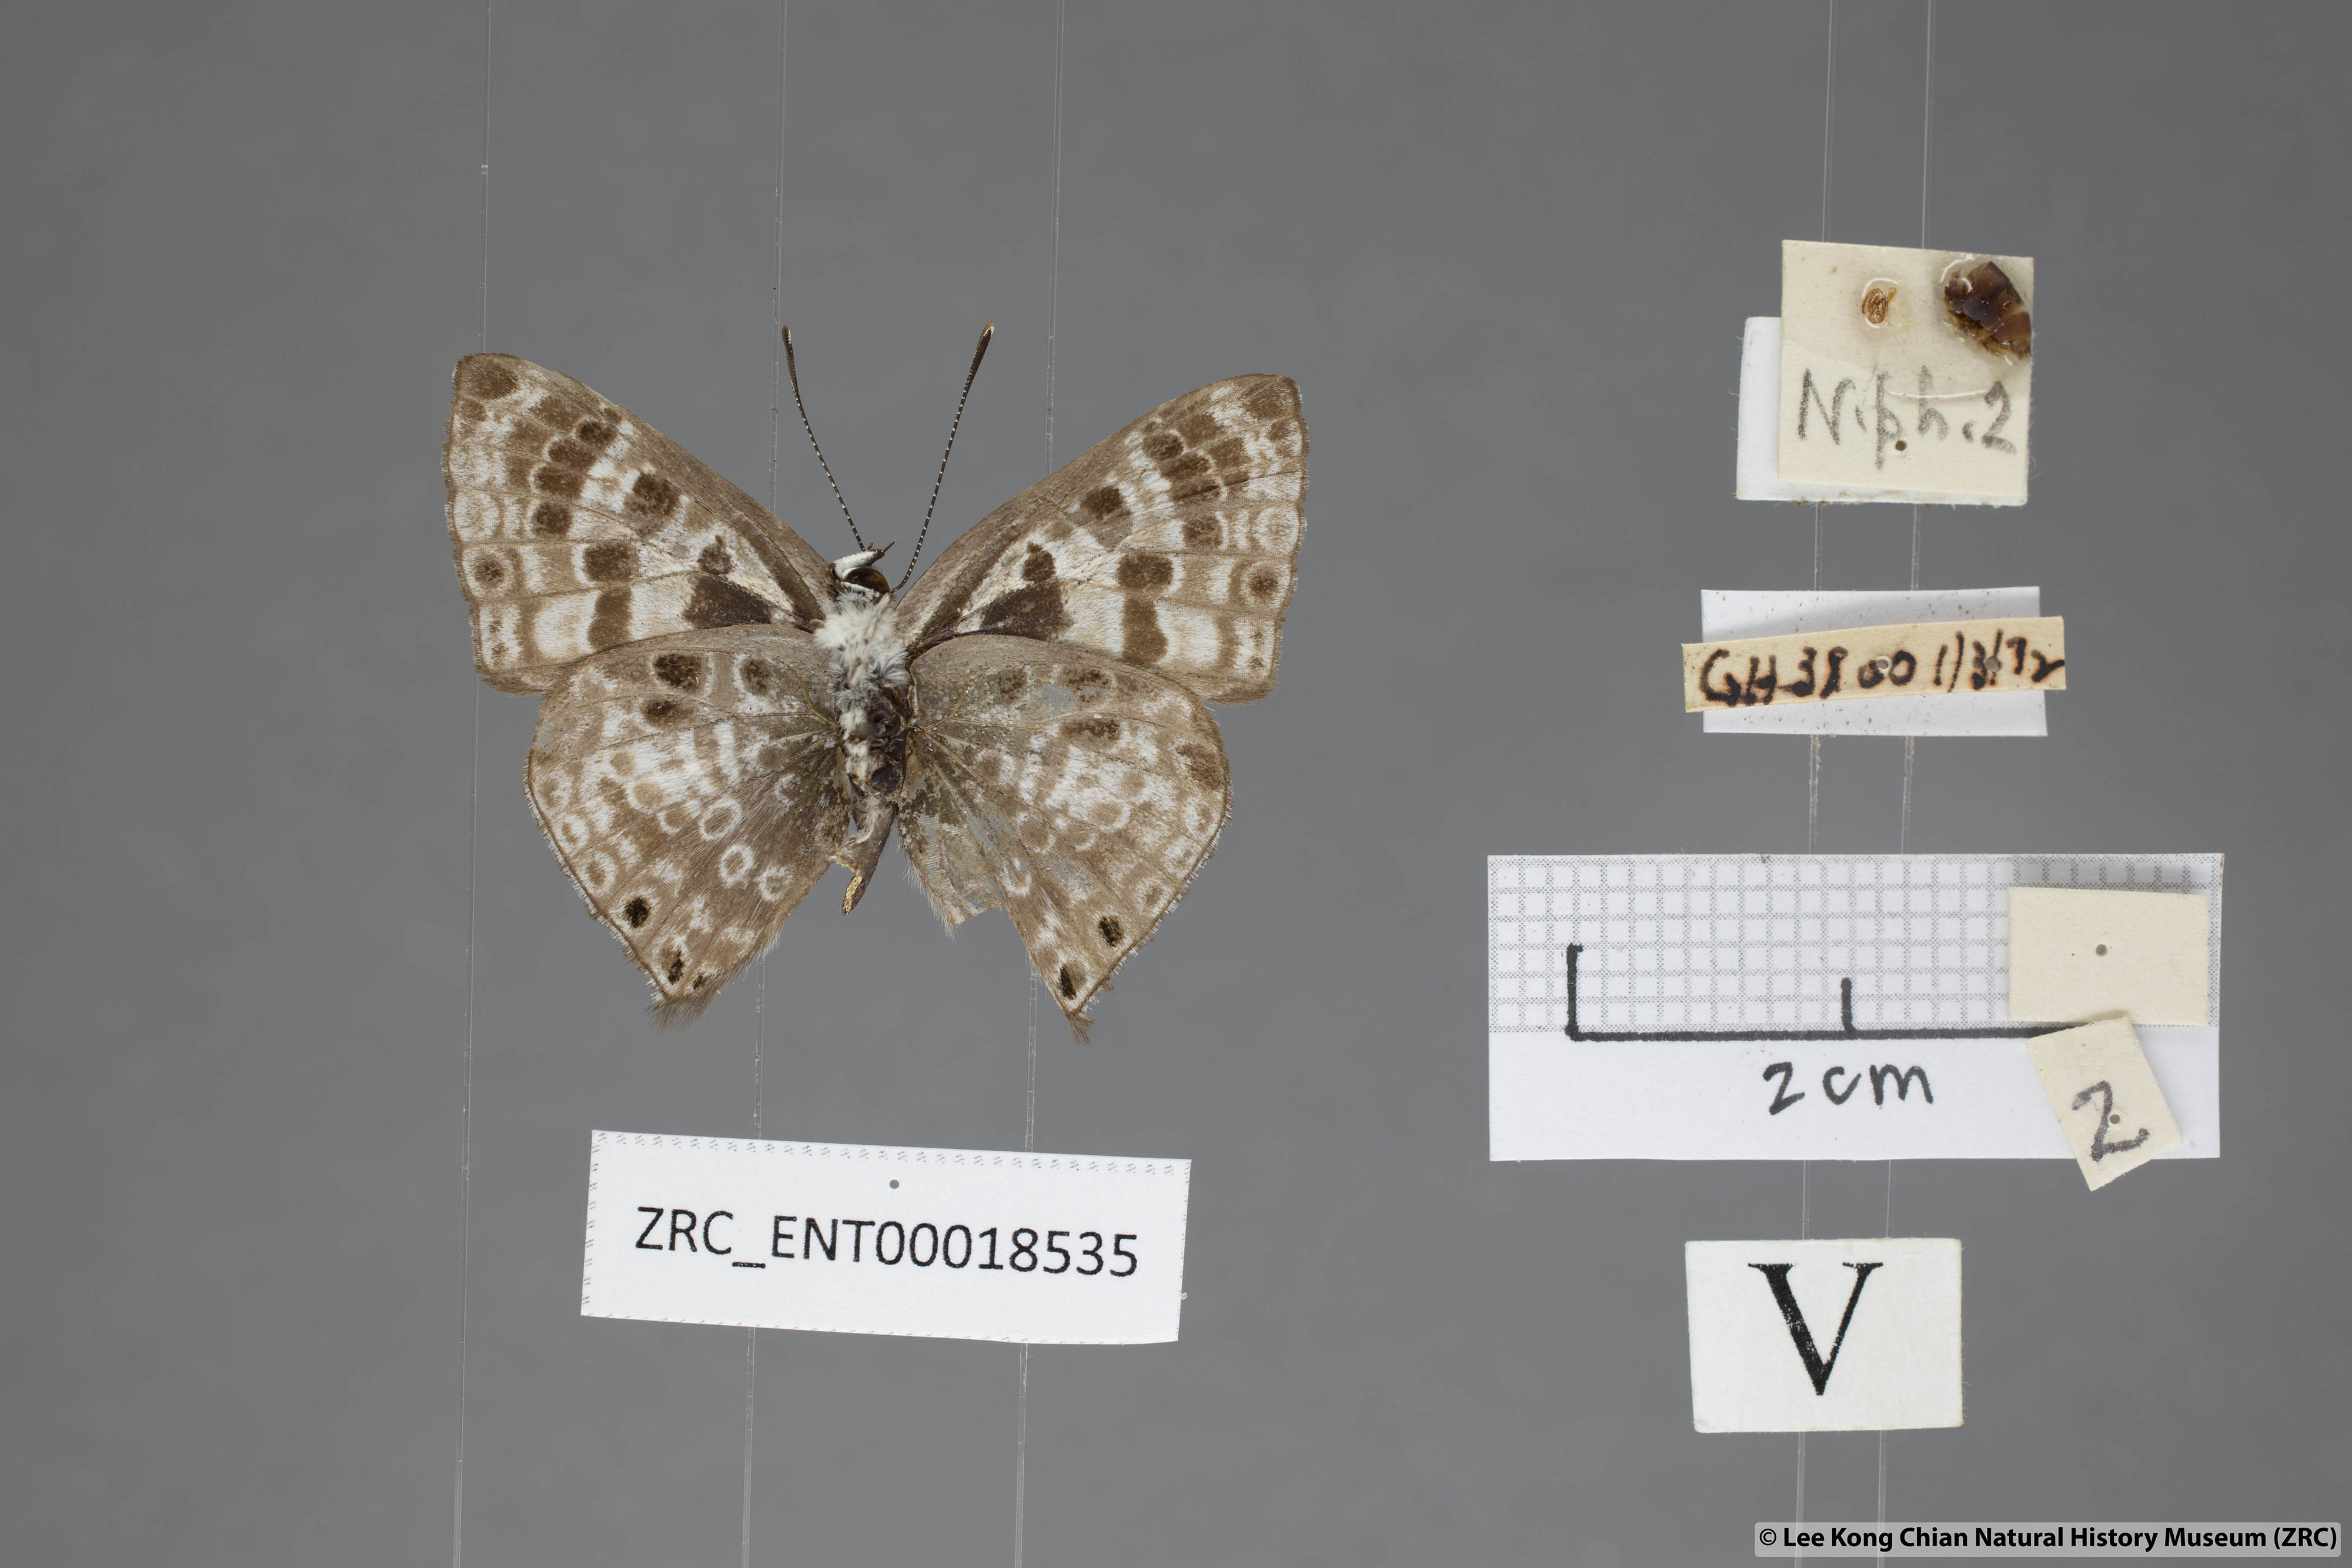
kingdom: Animalia
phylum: Arthropoda
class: Insecta
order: Lepidoptera
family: Lycaenidae
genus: Niphanda
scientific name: Niphanda tessellata
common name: Large pointed pierrot
